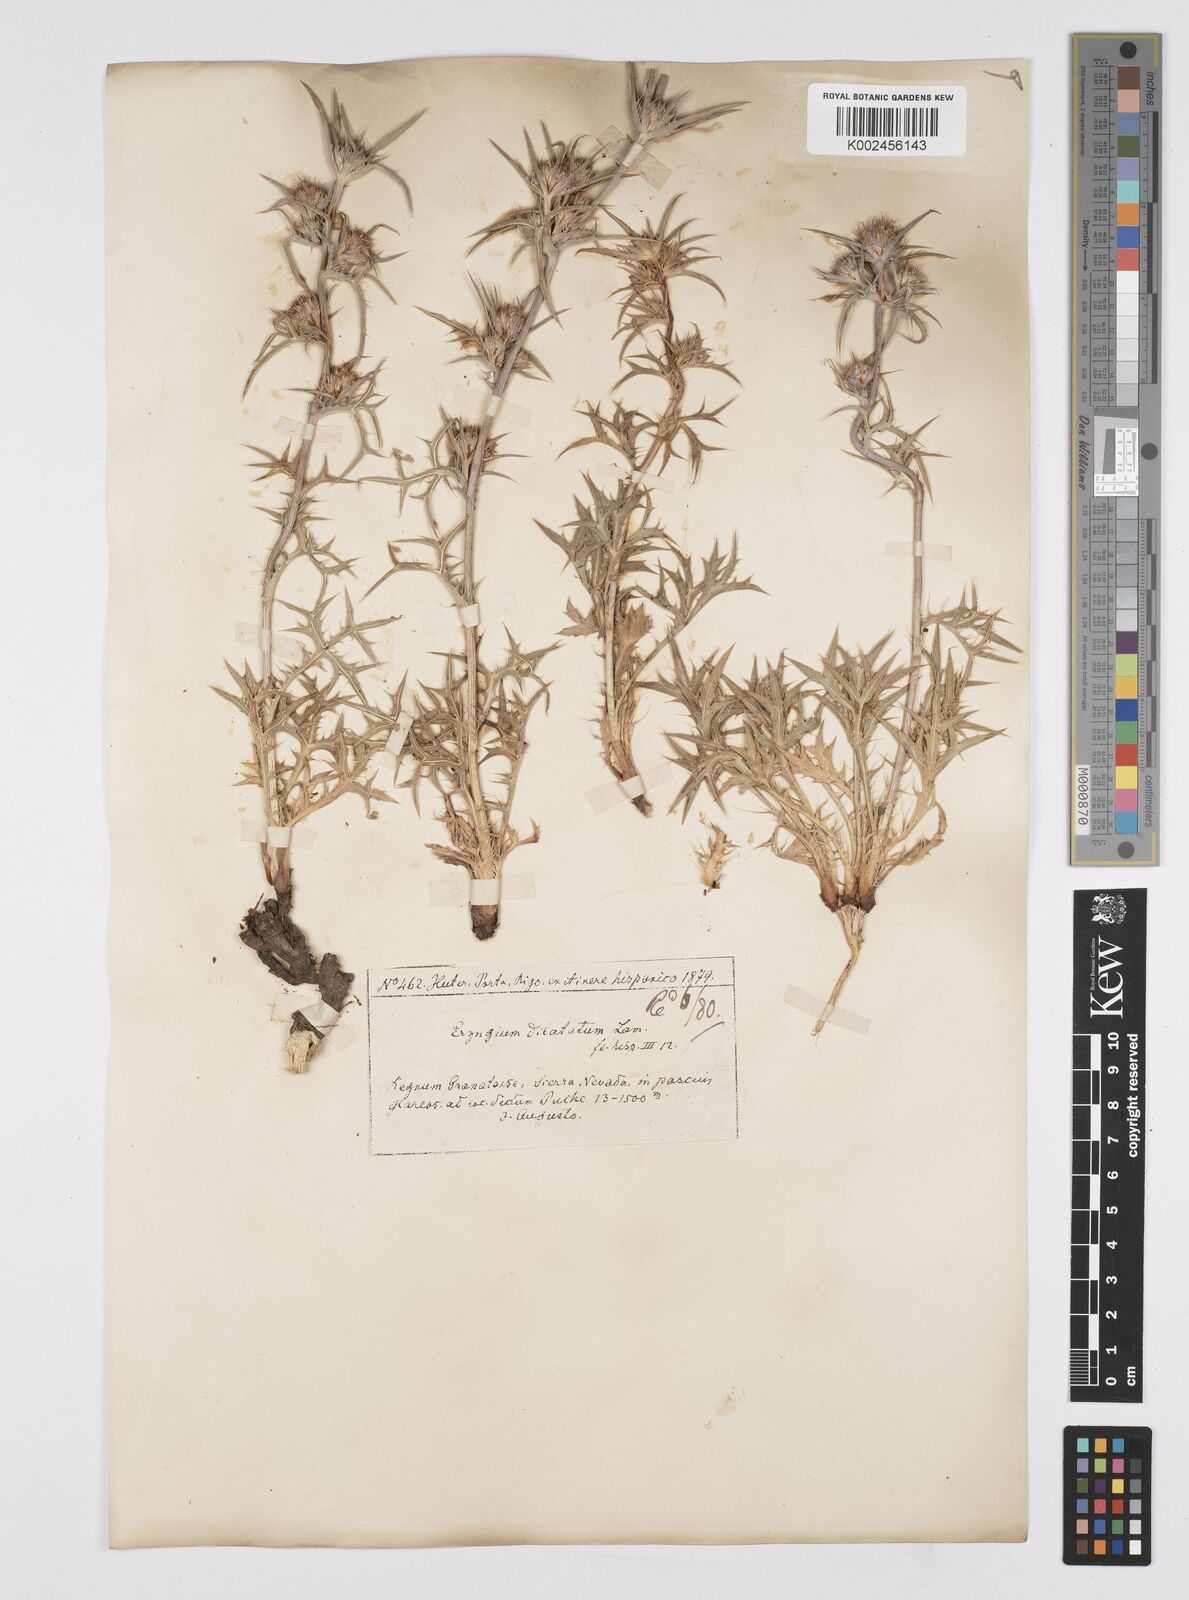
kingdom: Plantae
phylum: Tracheophyta
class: Magnoliopsida
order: Apiales
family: Apiaceae
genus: Eryngium
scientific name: Eryngium dilatatum
